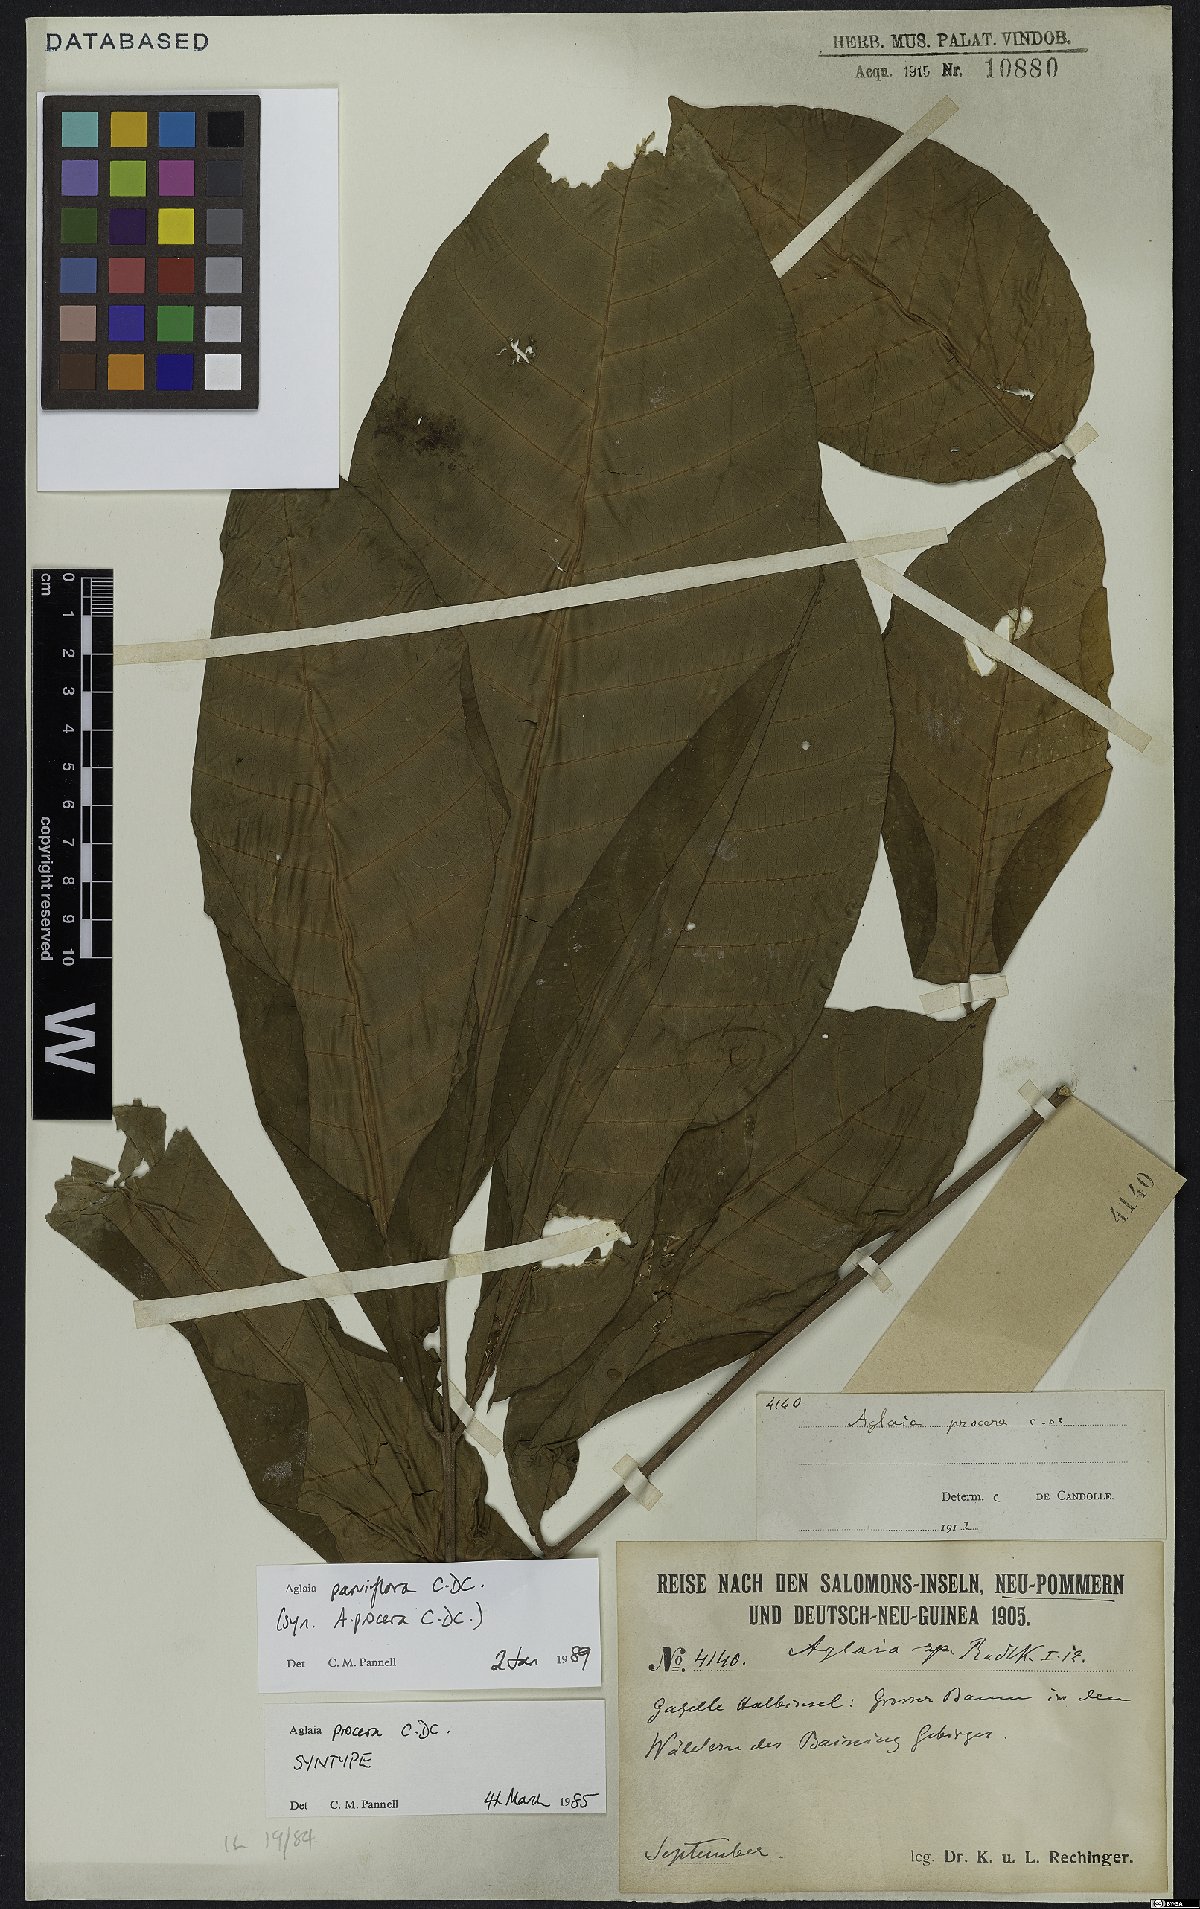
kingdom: Plantae
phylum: Tracheophyta
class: Magnoliopsida
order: Sapindales
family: Meliaceae
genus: Aglaia
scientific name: Aglaia parviflora
